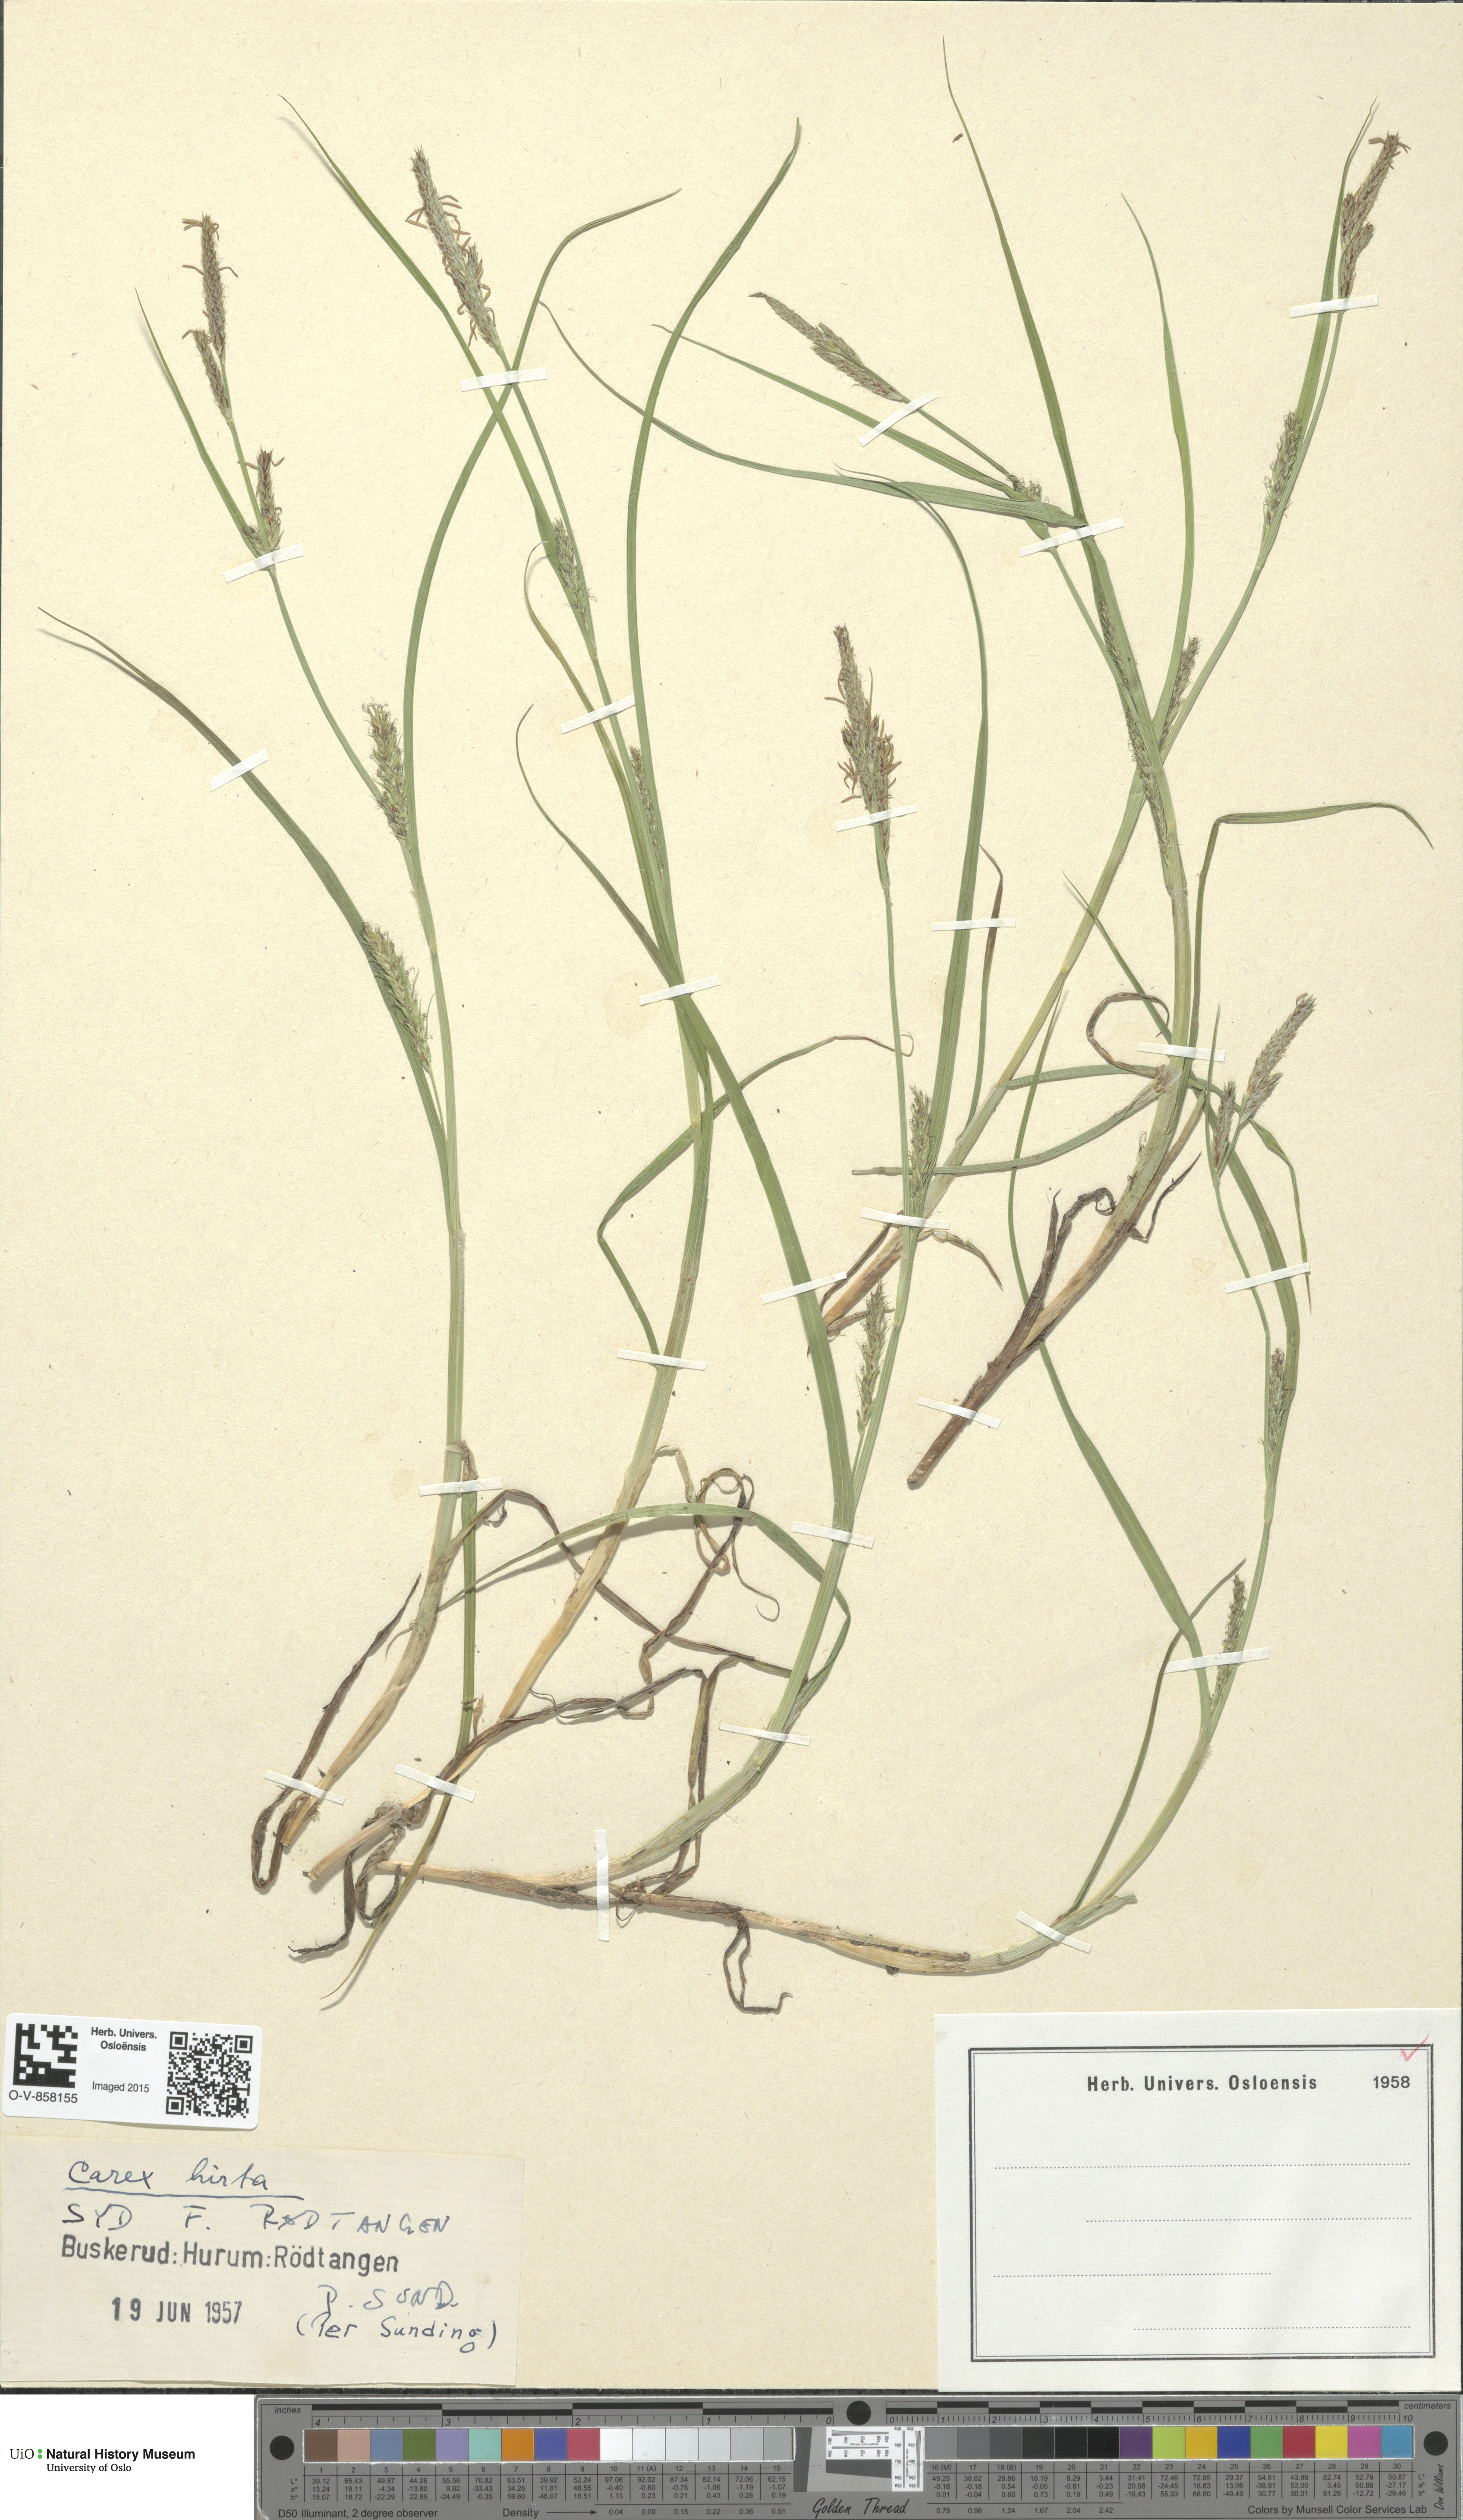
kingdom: Plantae
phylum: Tracheophyta
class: Liliopsida
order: Poales
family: Cyperaceae
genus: Carex
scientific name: Carex hirta
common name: Hairy sedge
